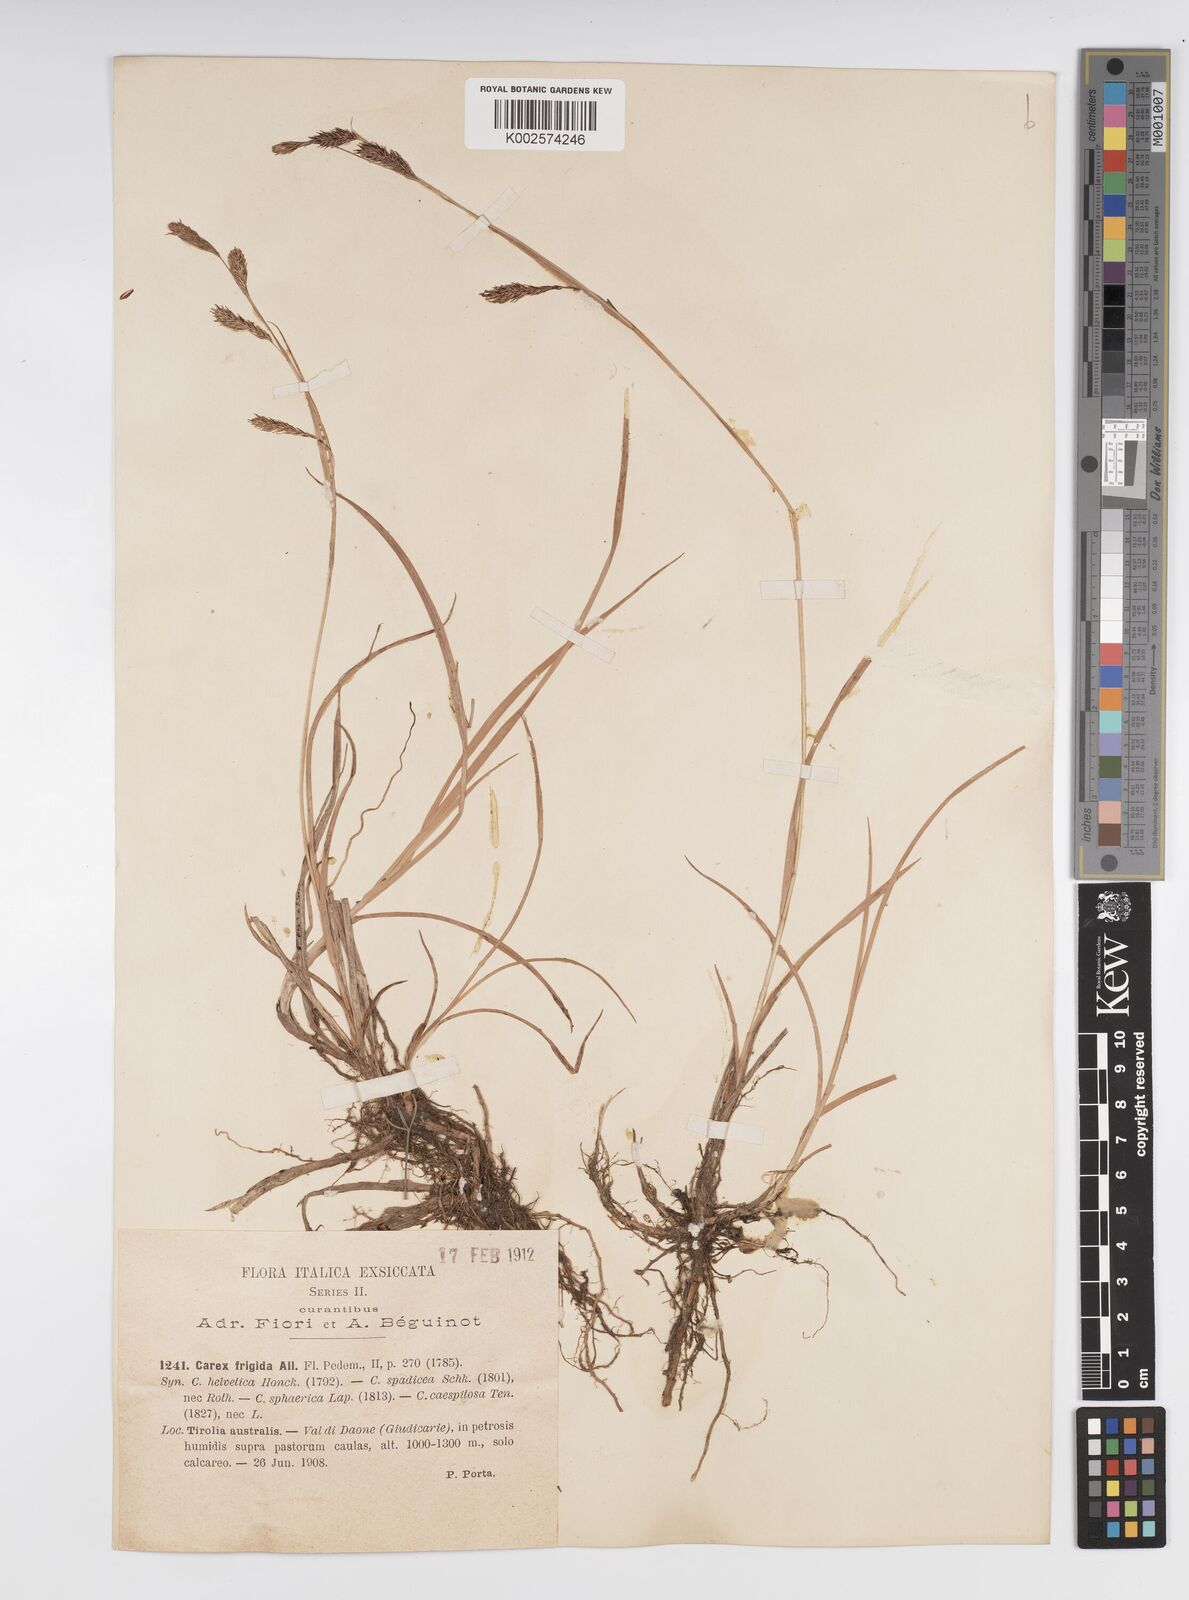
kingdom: Plantae
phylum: Tracheophyta
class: Liliopsida
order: Poales
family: Cyperaceae
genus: Carex
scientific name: Carex frigida
